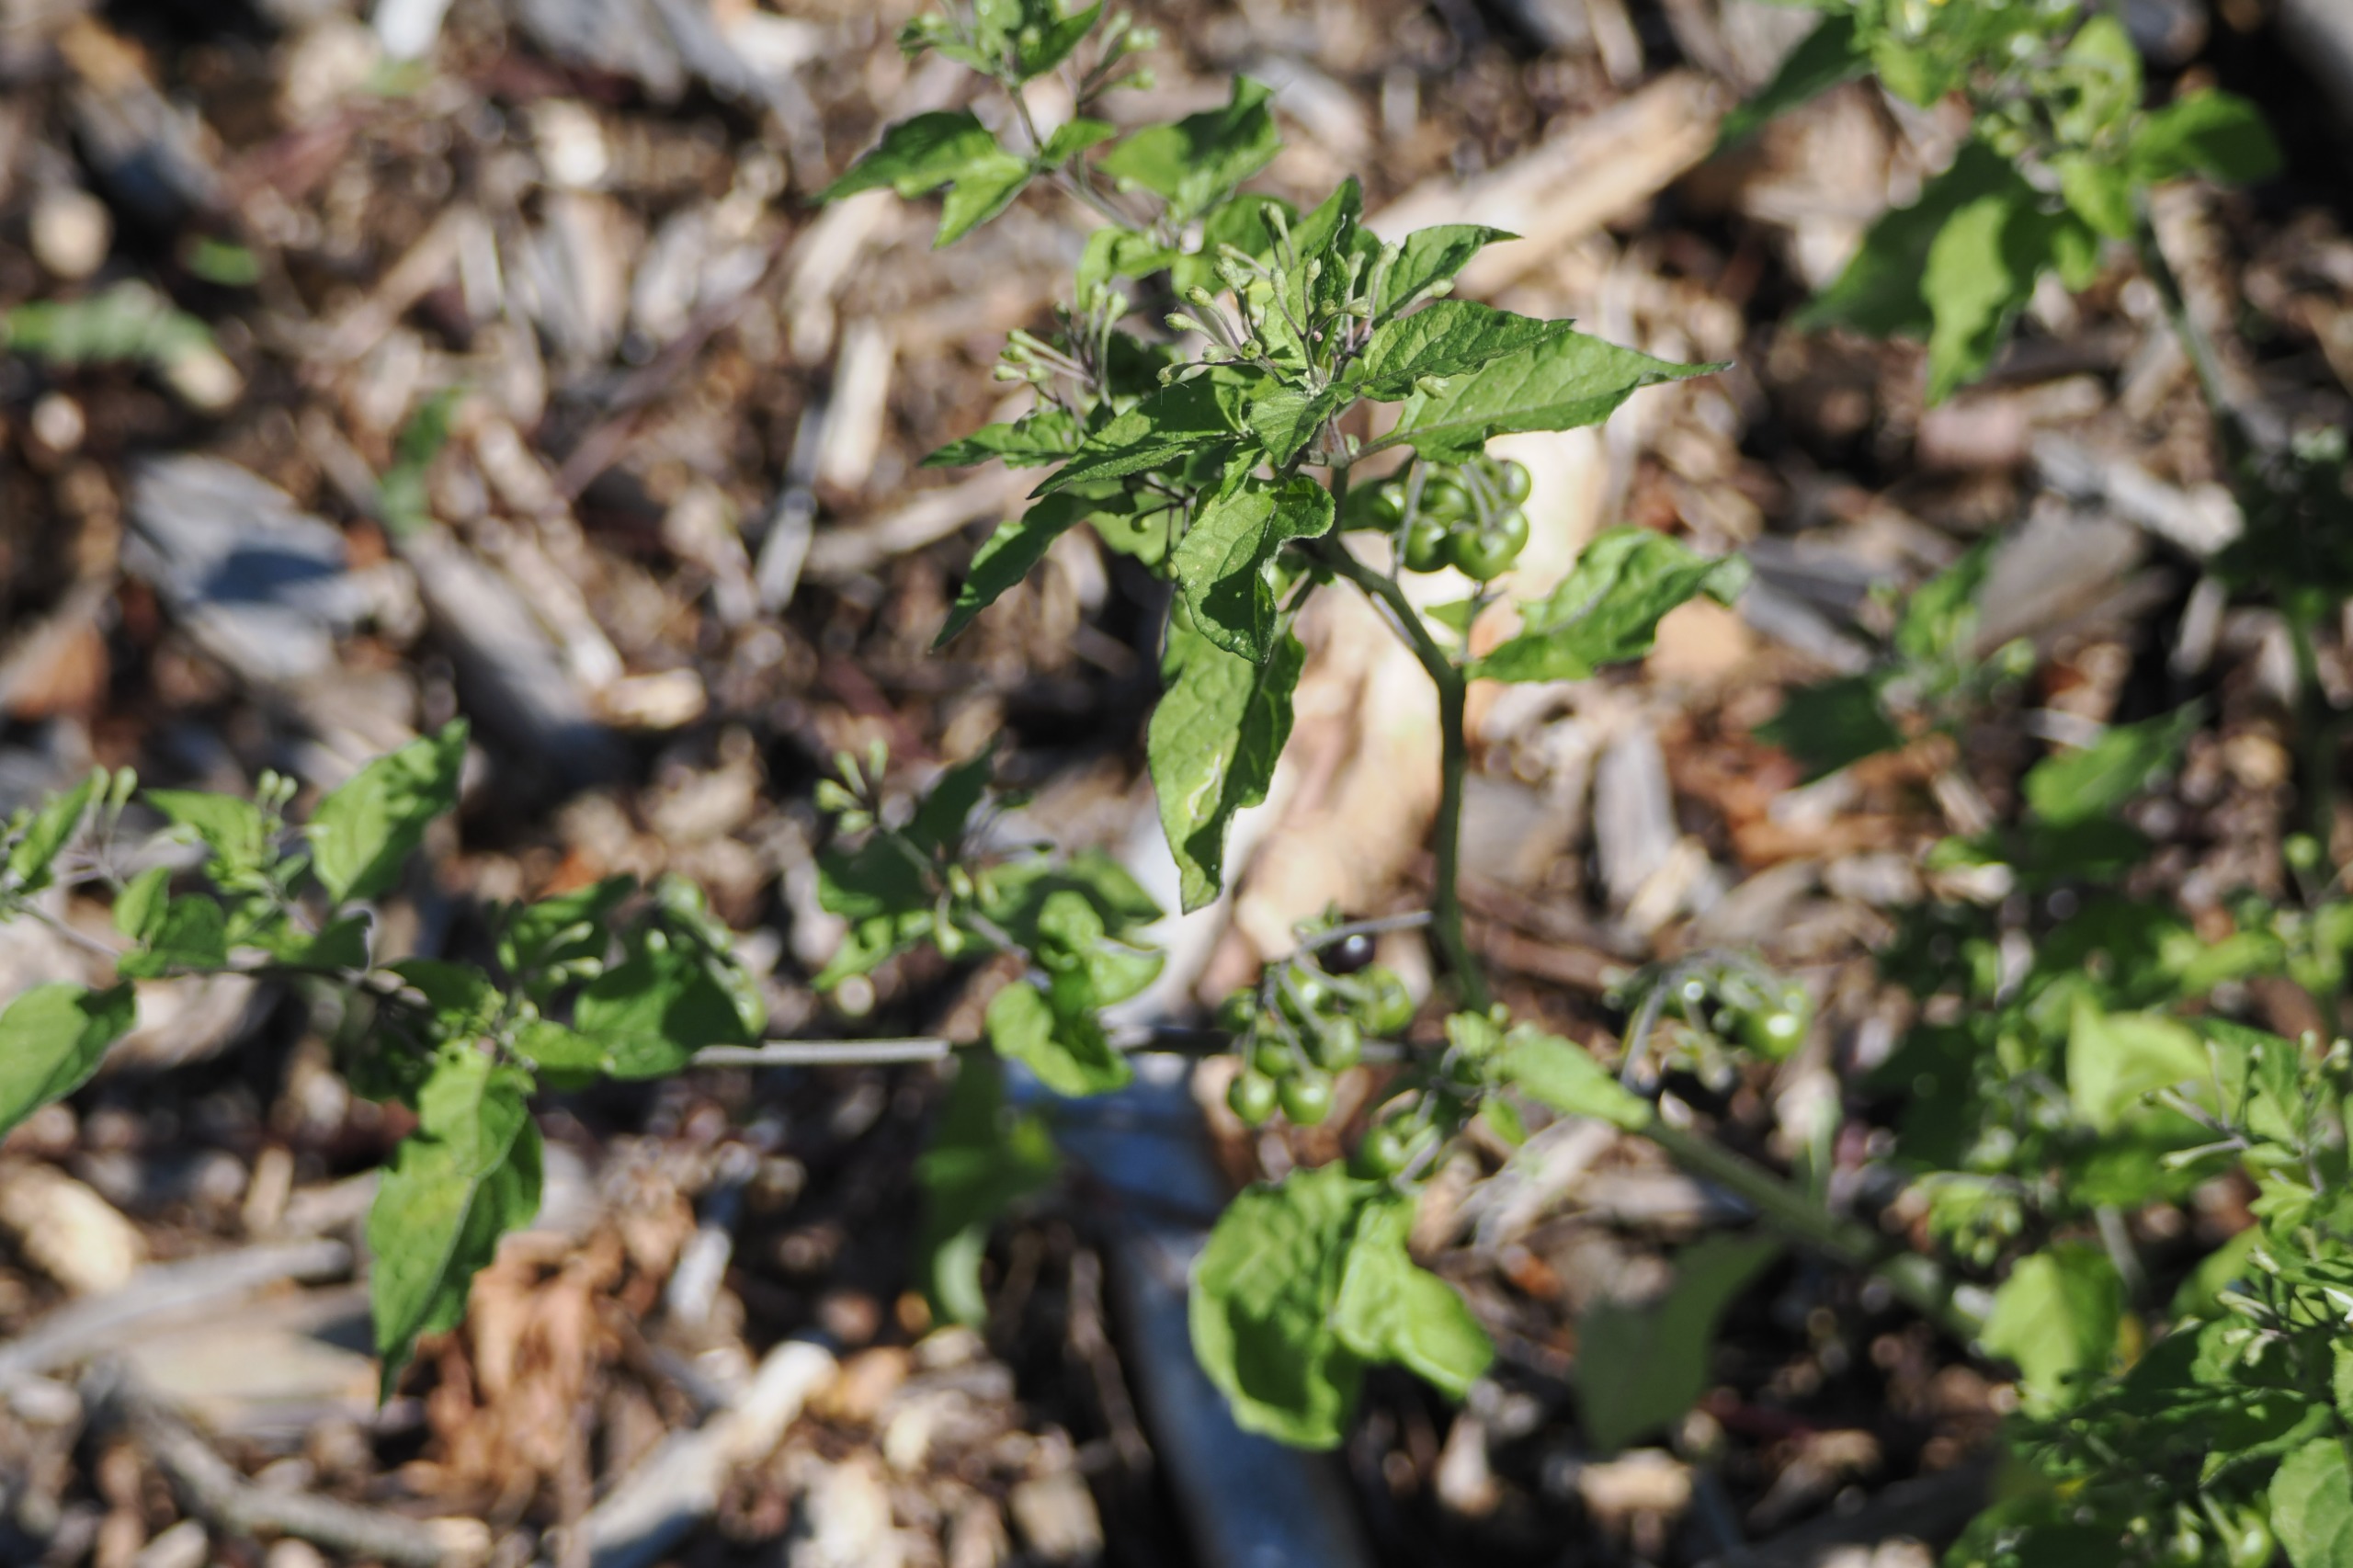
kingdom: Plantae
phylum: Tracheophyta
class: Magnoliopsida
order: Solanales
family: Solanaceae
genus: Solanum
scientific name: Solanum dulcamara
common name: Bittersød natskygge
